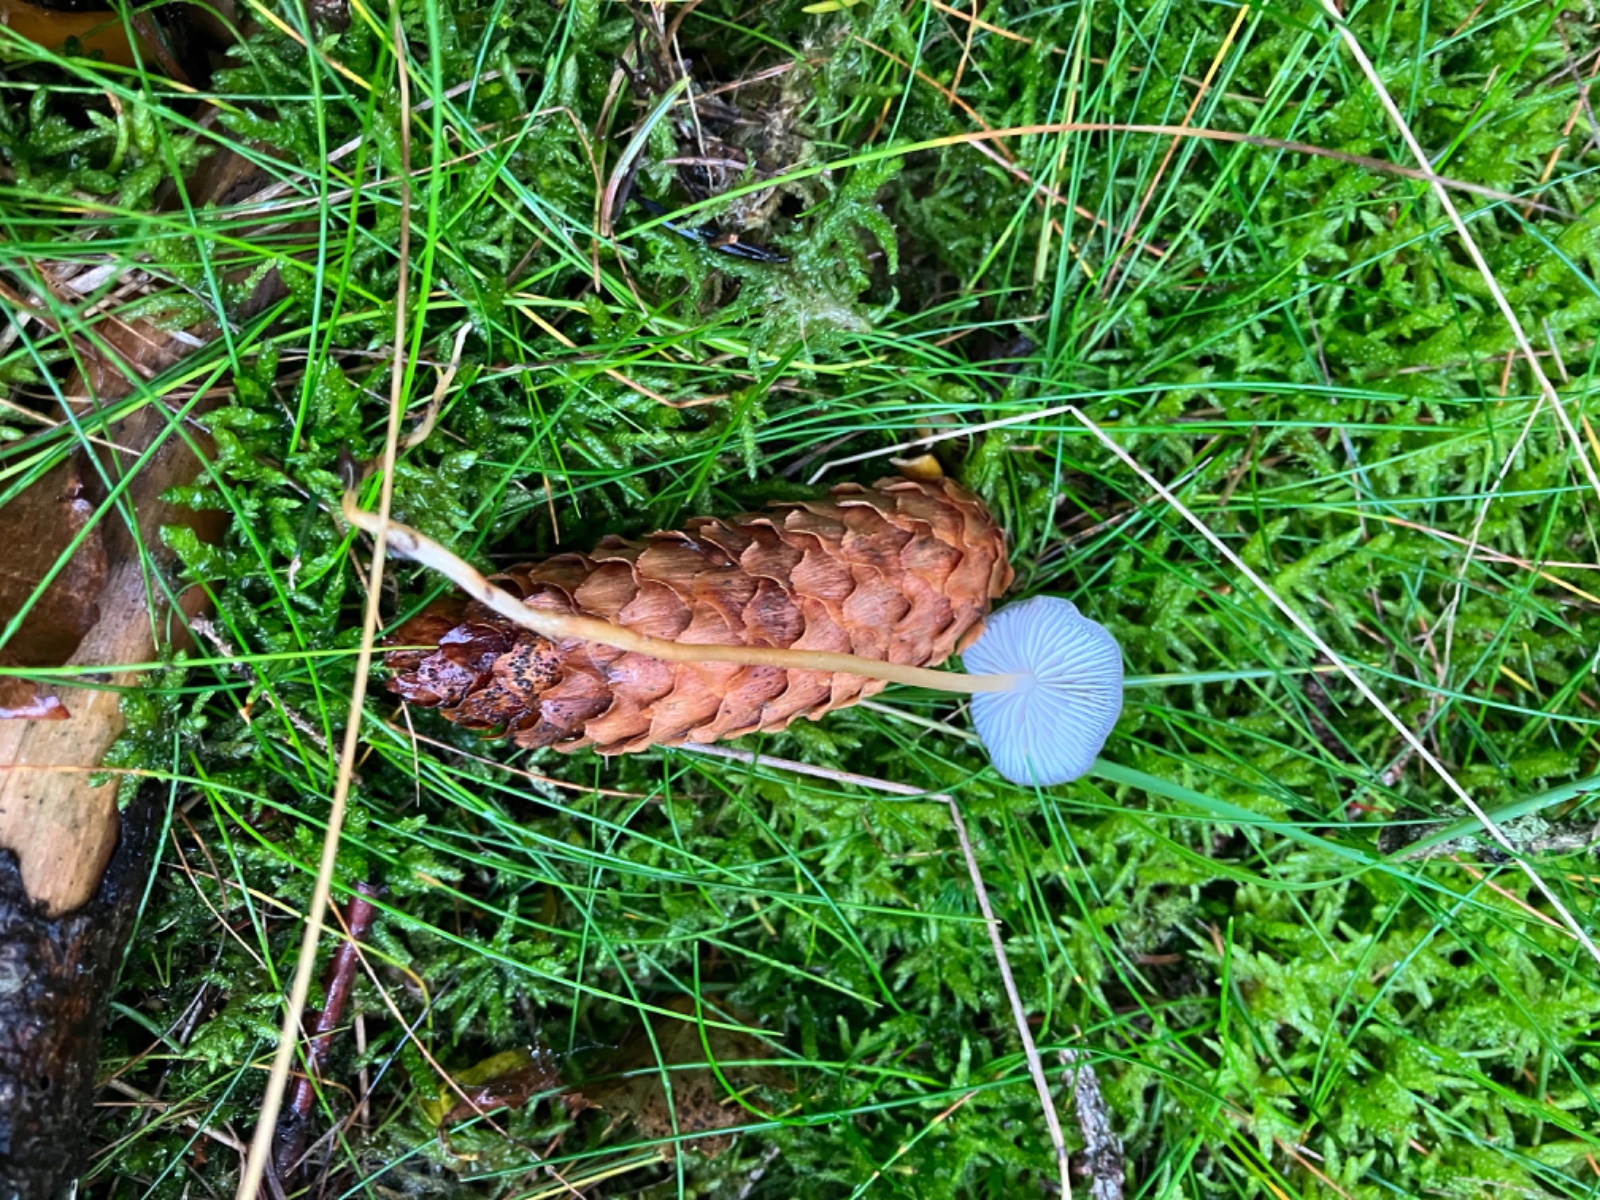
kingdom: Fungi
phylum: Basidiomycota
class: Agaricomycetes
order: Agaricales
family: Physalacriaceae
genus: Strobilurus
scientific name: Strobilurus esculentus
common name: gran-koglehat
